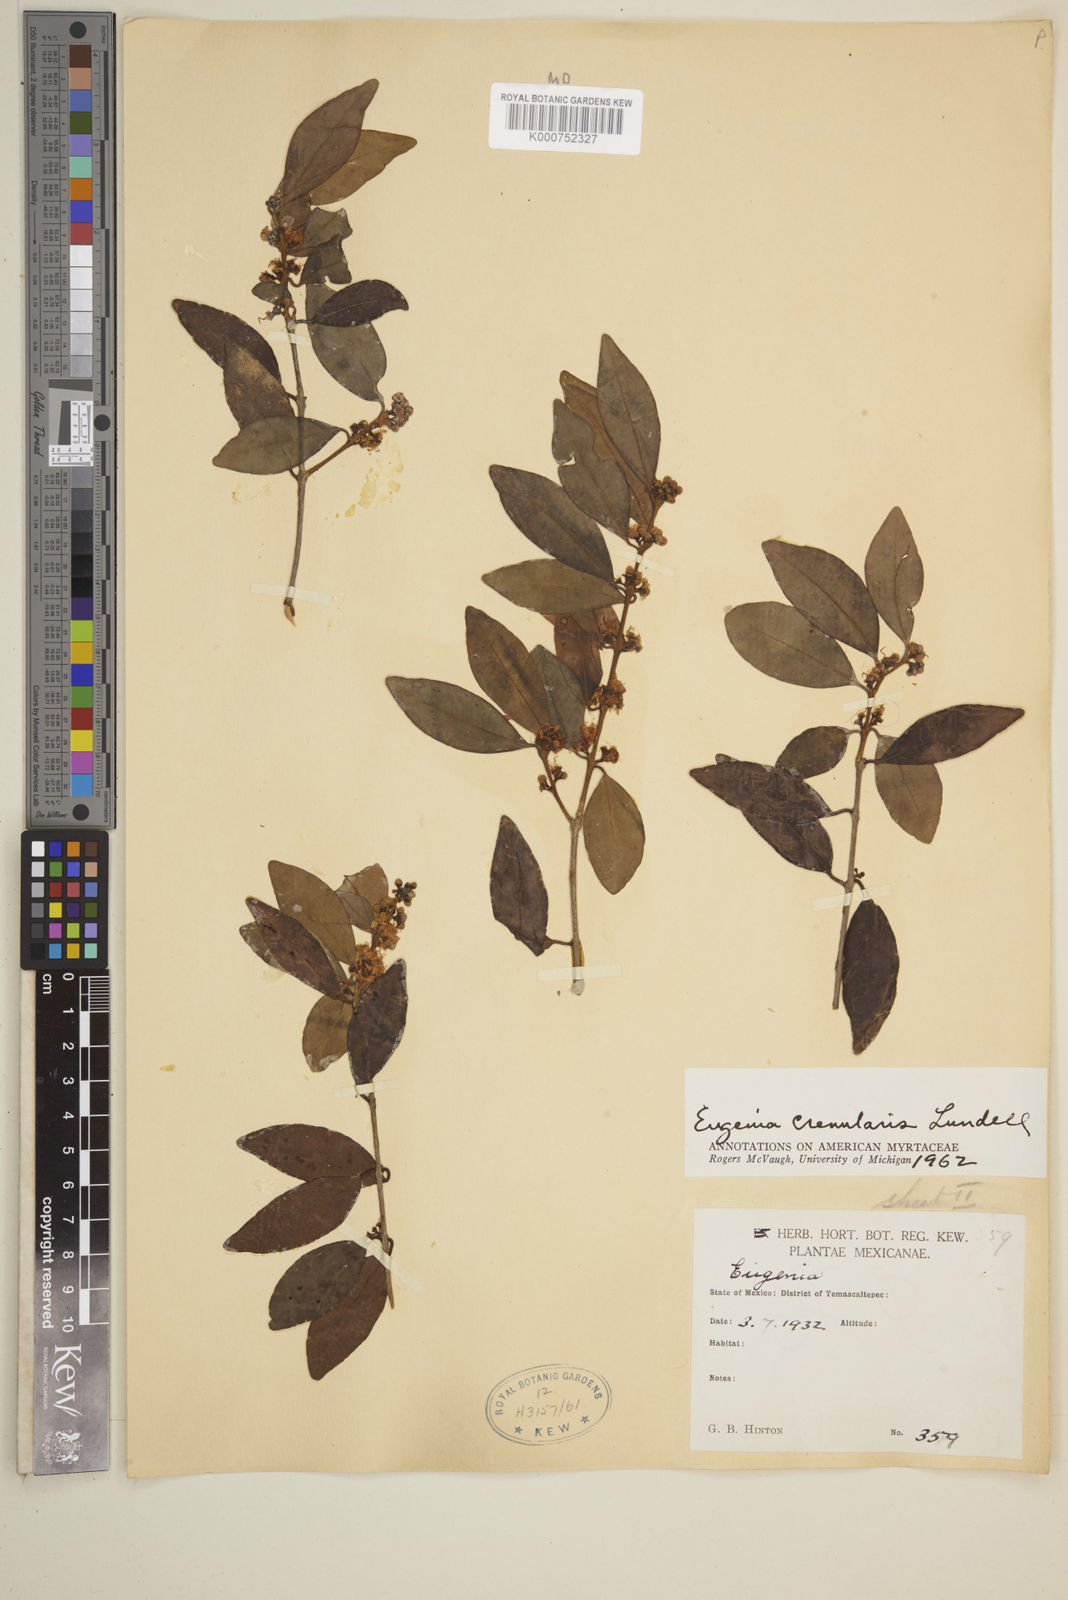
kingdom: Plantae
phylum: Tracheophyta
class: Magnoliopsida
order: Myrtales
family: Myrtaceae
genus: Eugenia
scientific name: Eugenia crenularis
